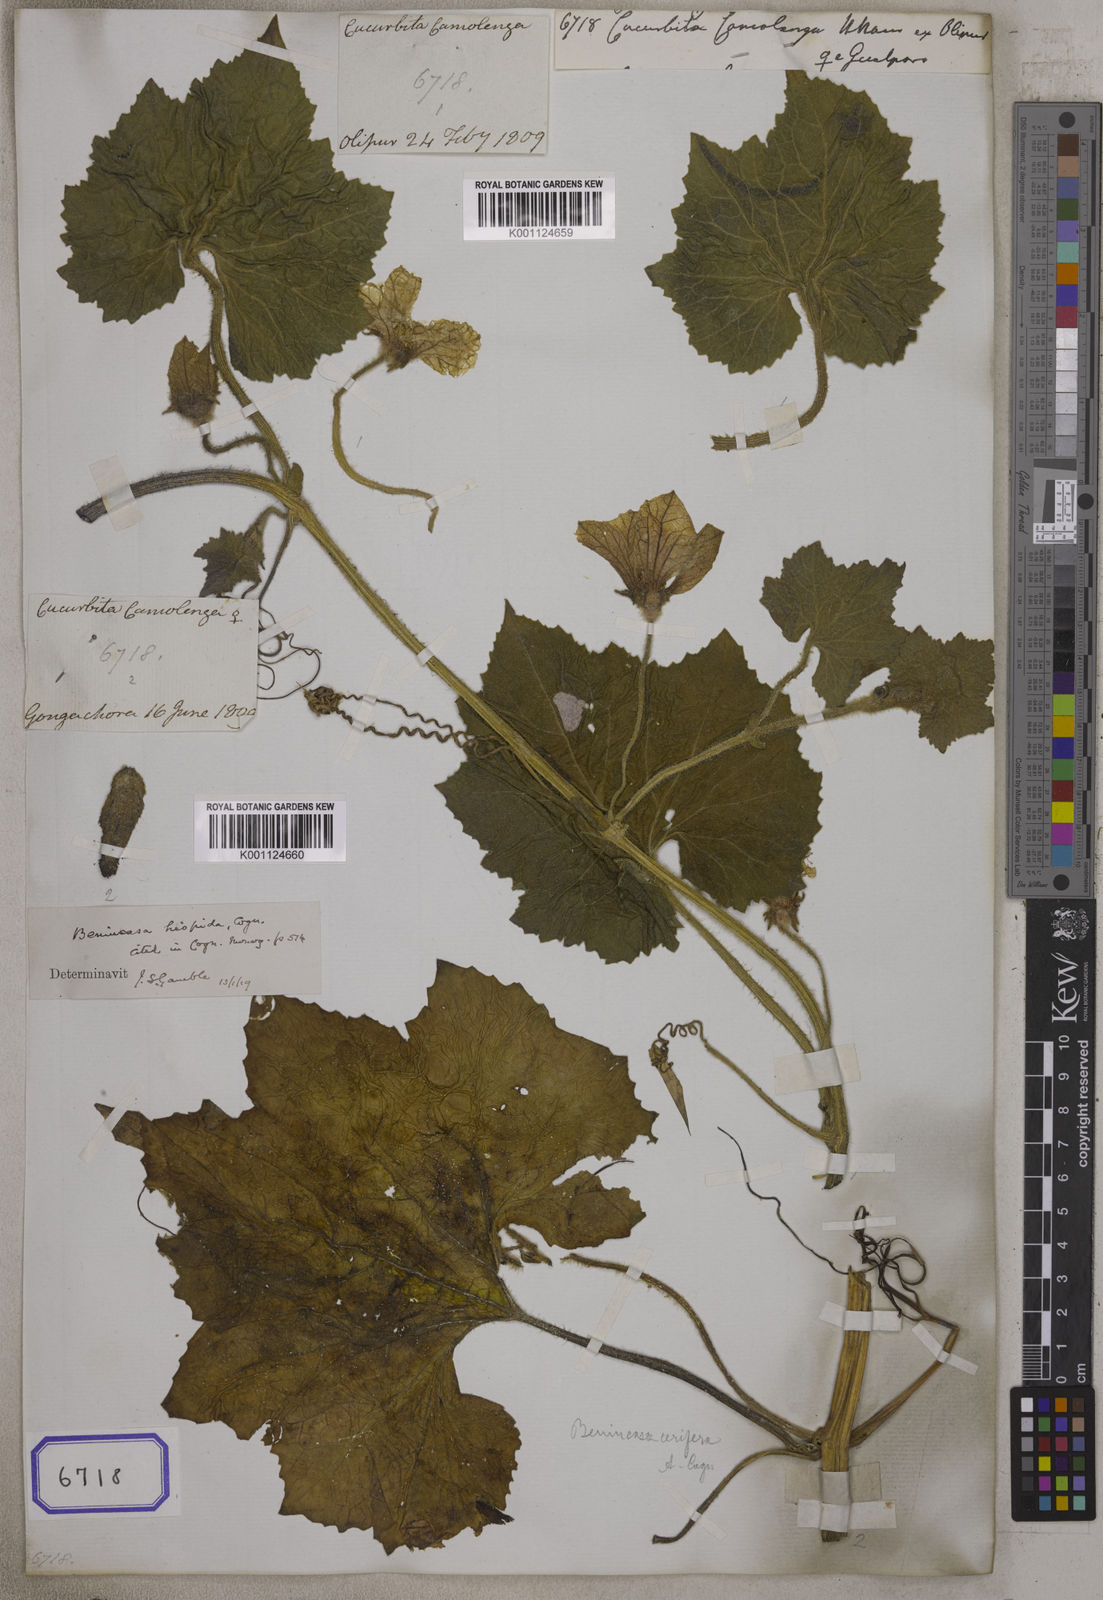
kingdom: Plantae
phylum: Tracheophyta
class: Magnoliopsida
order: Cucurbitales
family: Cucurbitaceae
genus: Cucurbita
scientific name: Cucurbita
